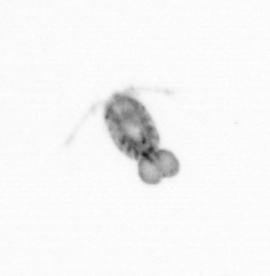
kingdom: Animalia
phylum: Arthropoda
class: Copepoda
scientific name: Copepoda
